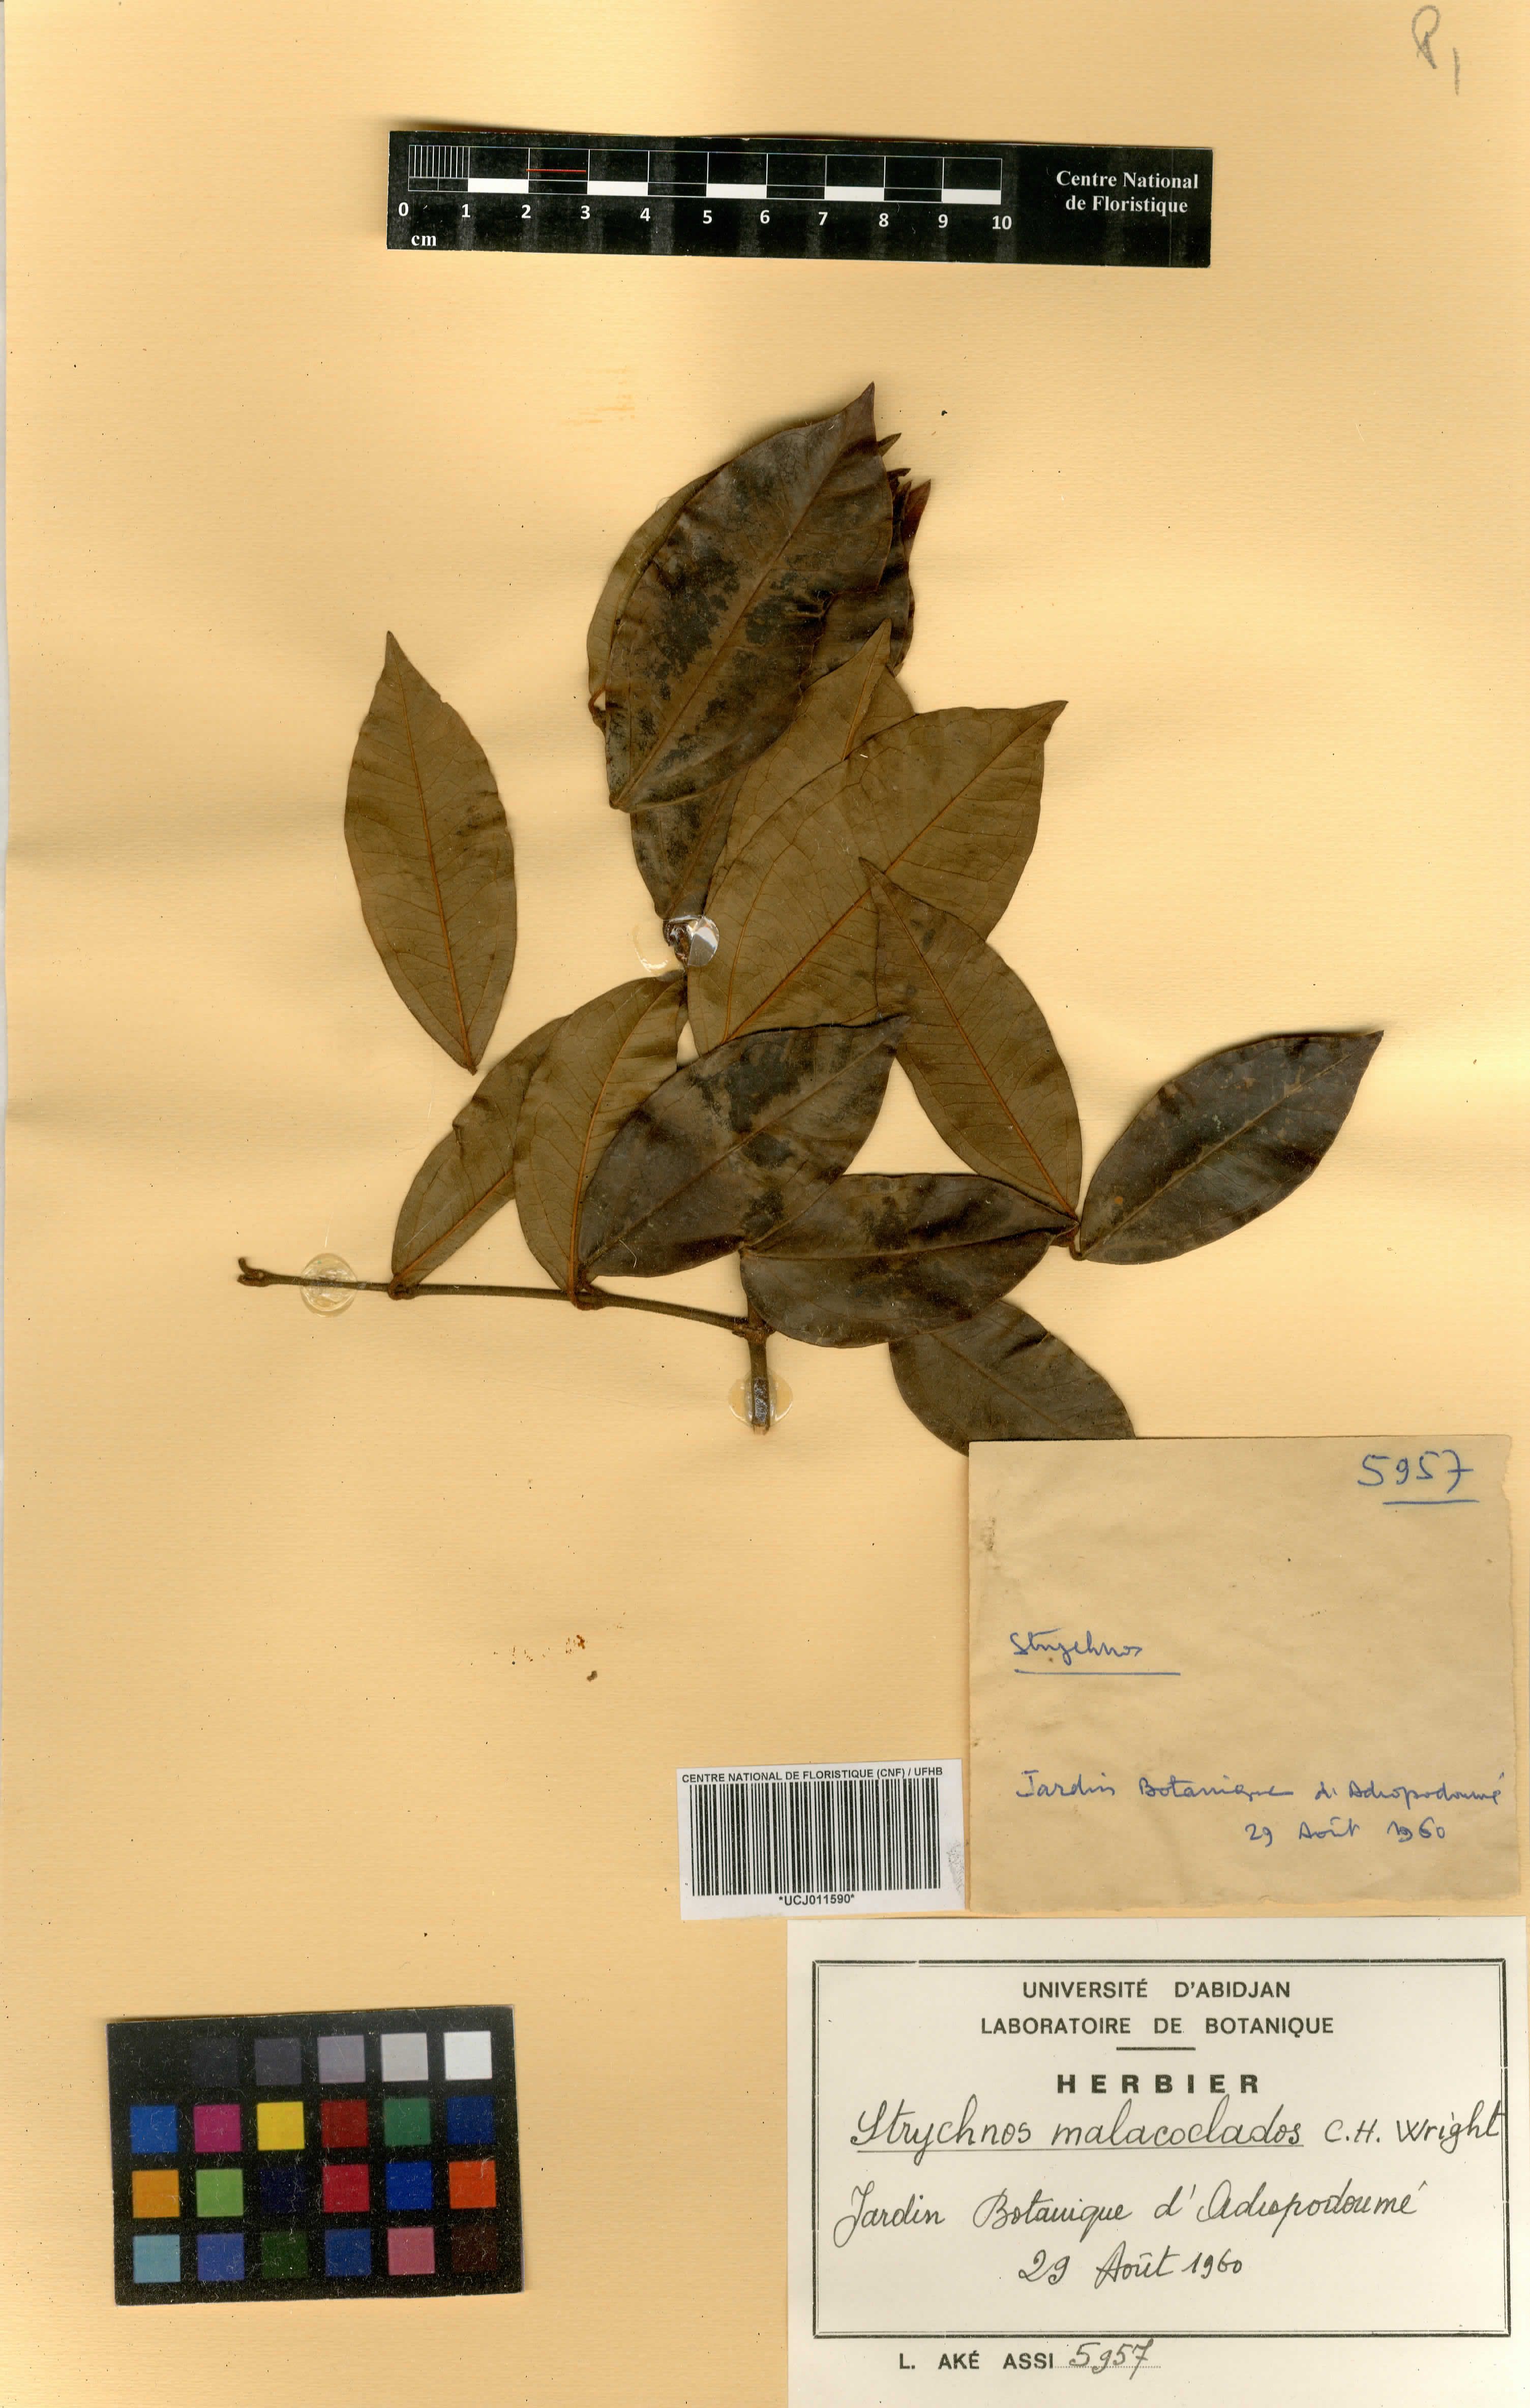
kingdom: Plantae
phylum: Tracheophyta
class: Magnoliopsida
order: Gentianales
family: Loganiaceae
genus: Strychnos
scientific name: Strychnos malacoclados
